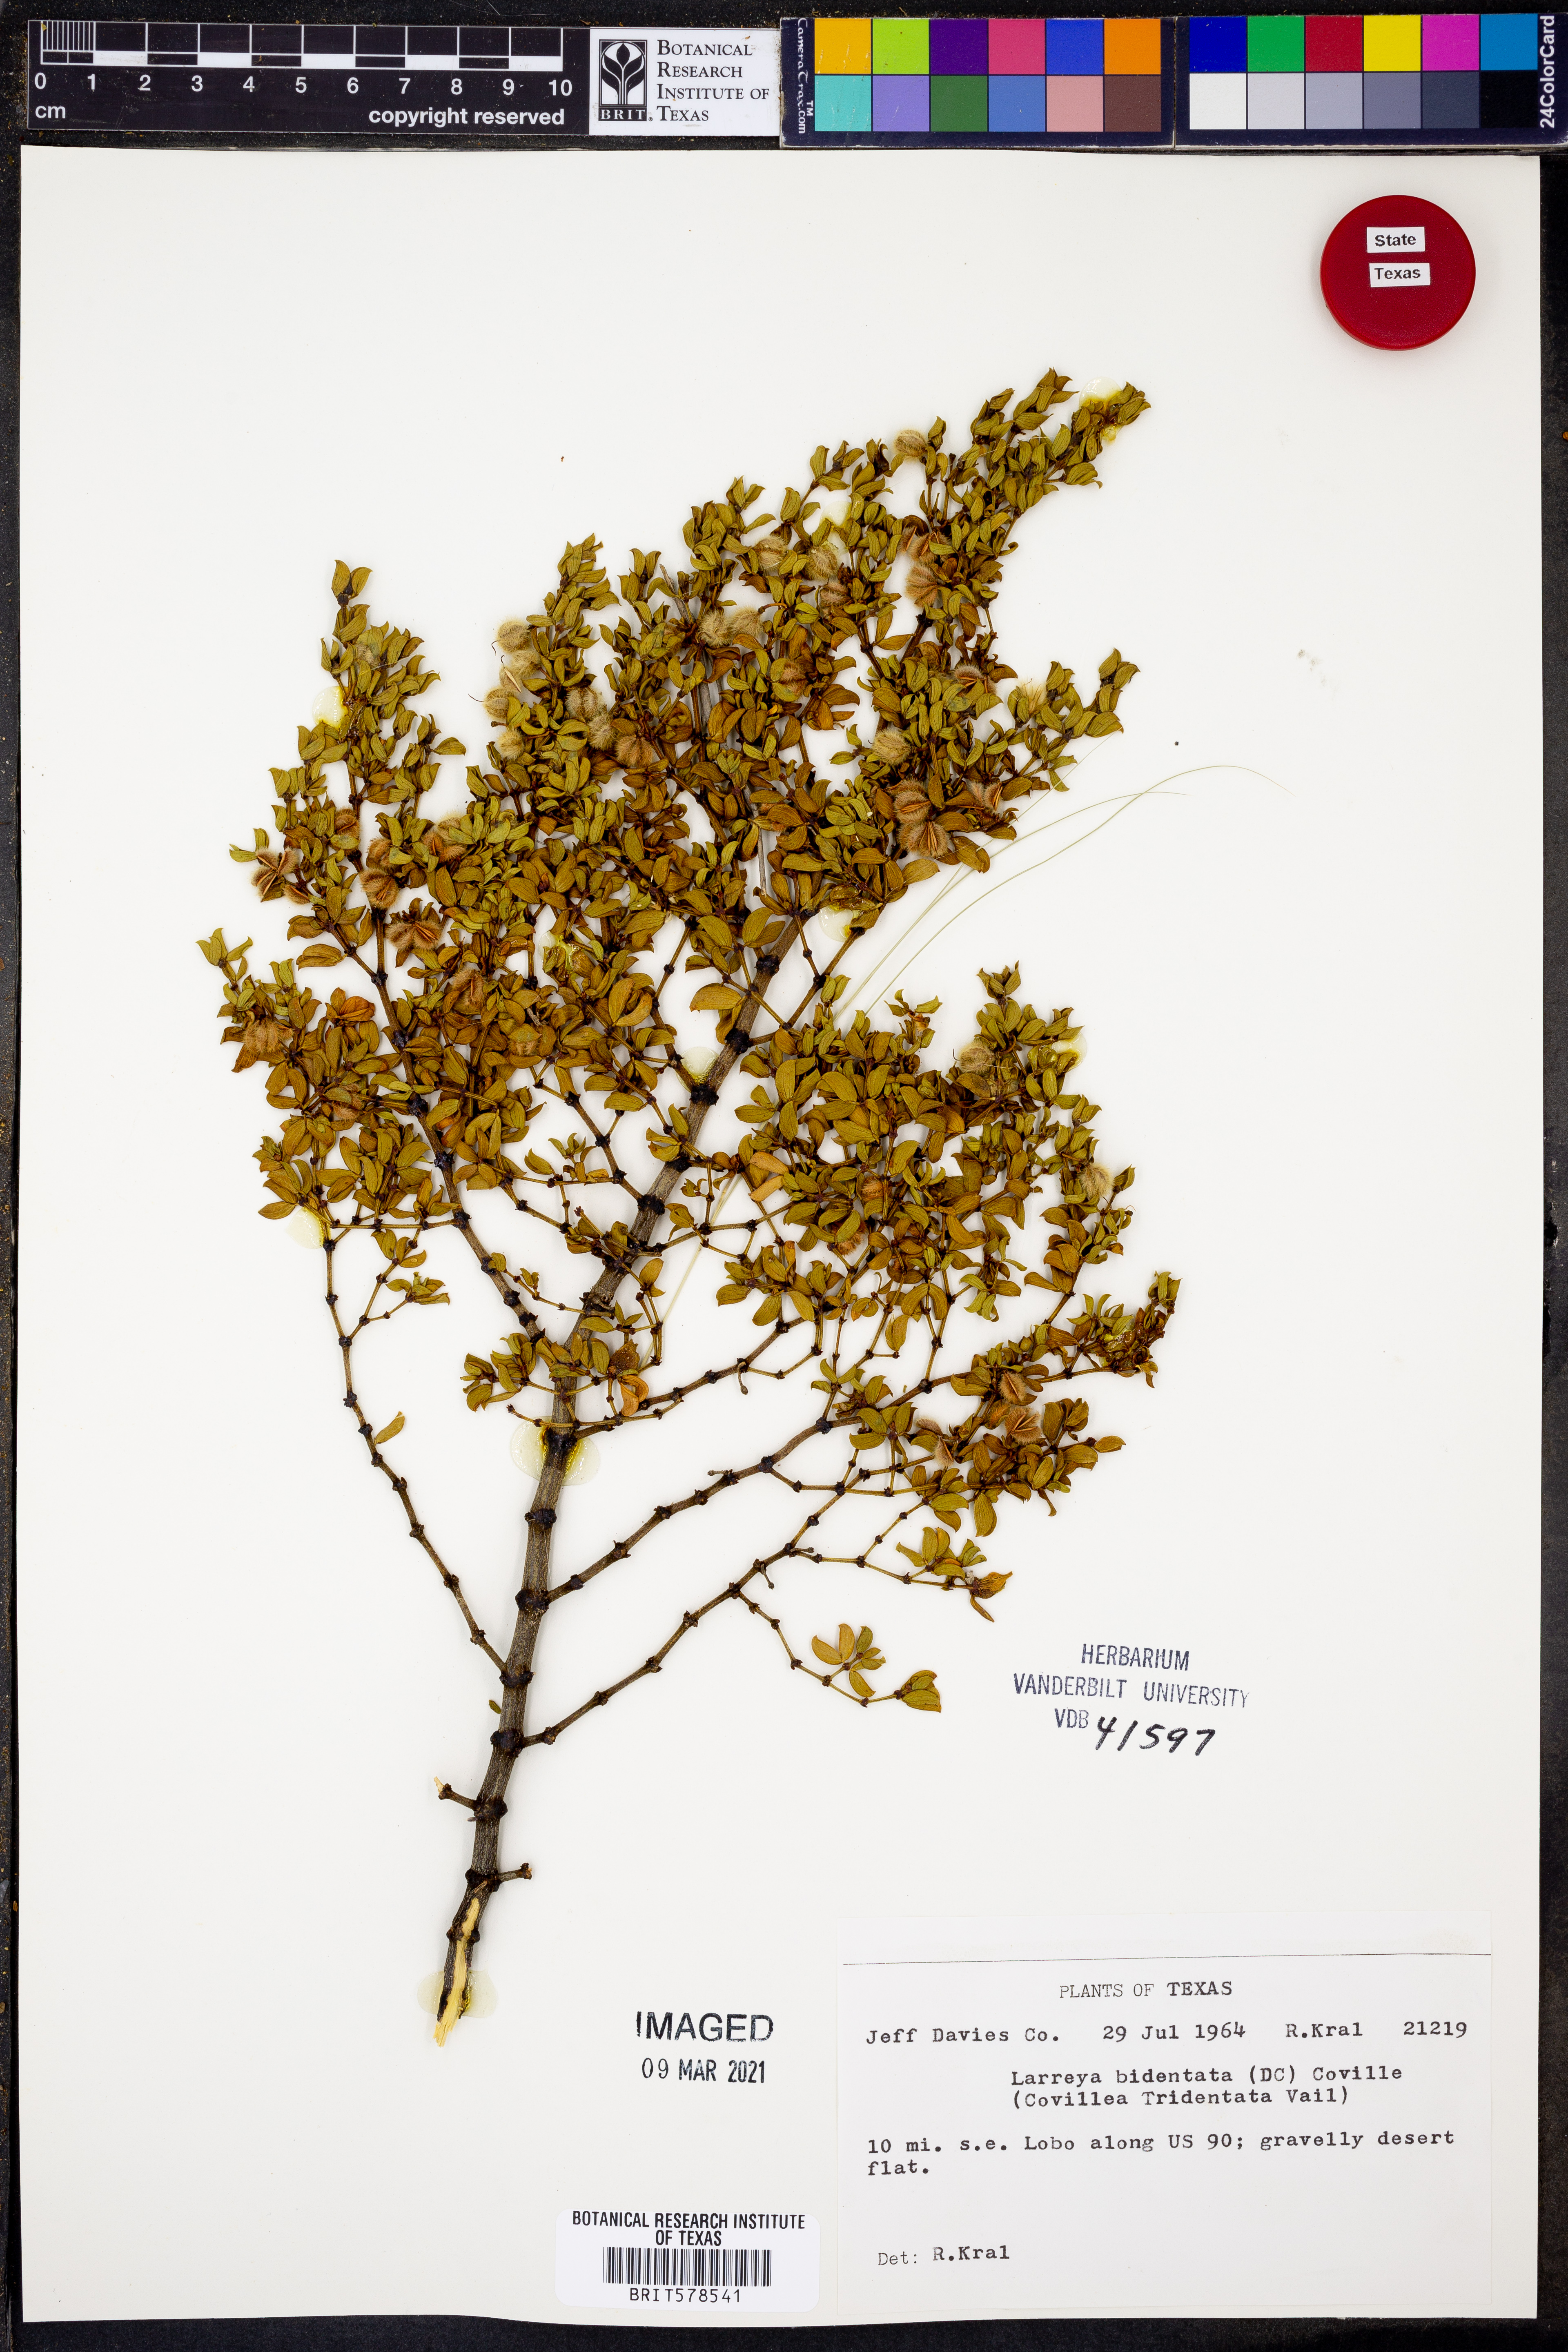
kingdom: Plantae
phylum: Tracheophyta
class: Magnoliopsida
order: Zygophyllales
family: Zygophyllaceae
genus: Larrea
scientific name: Larrea tridentata
